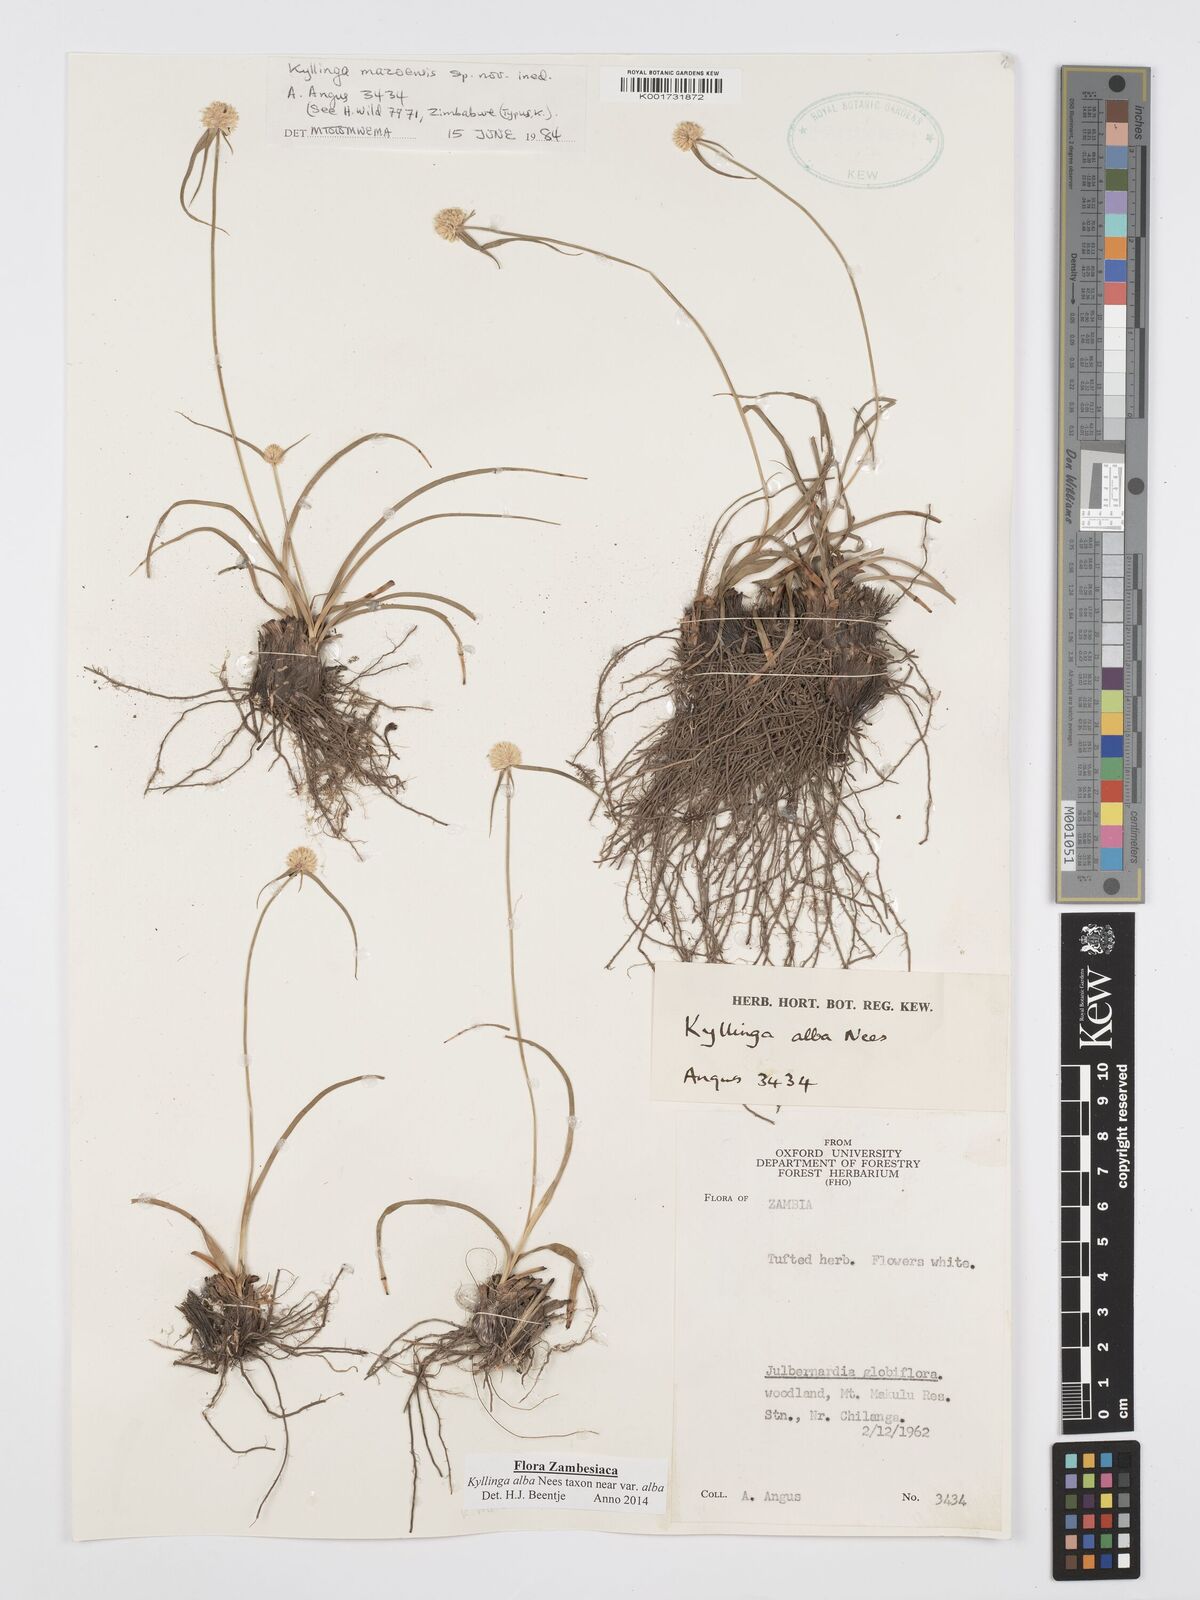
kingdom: Plantae
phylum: Tracheophyta
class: Liliopsida
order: Poales
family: Cyperaceae
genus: Cyperus
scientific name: Cyperus
